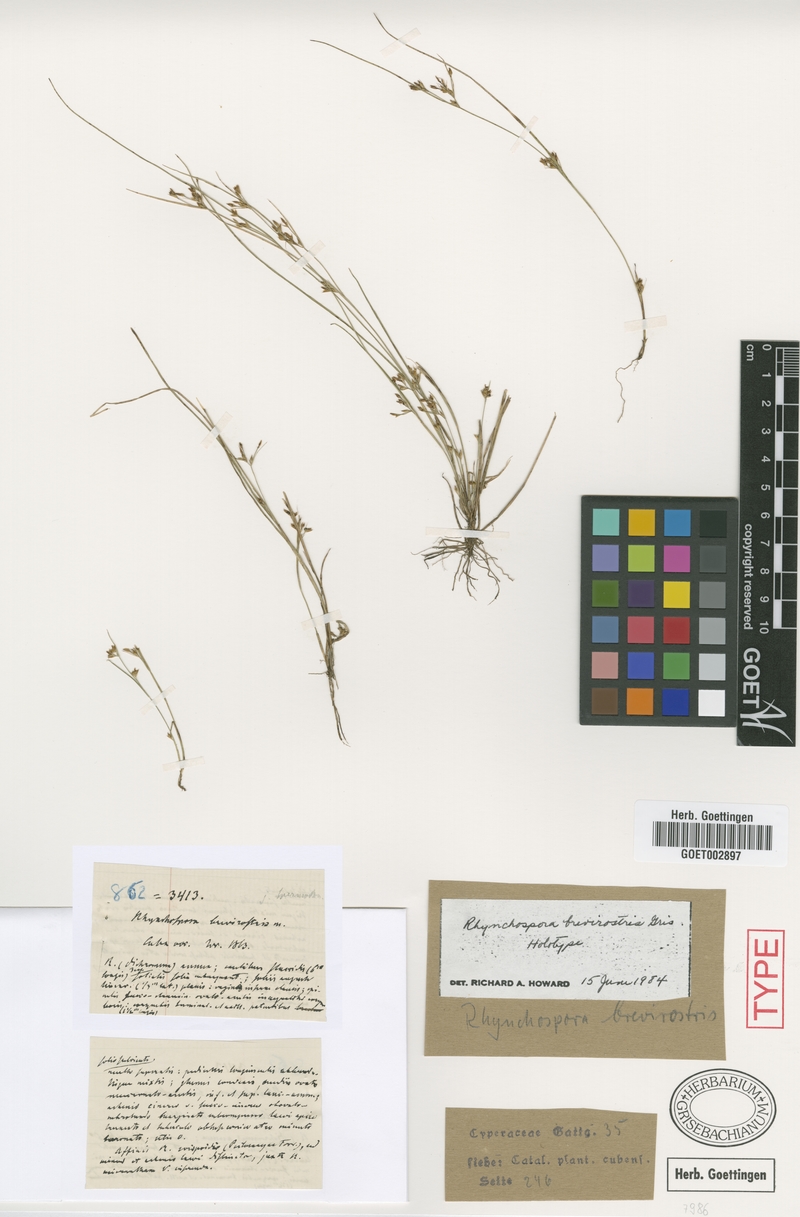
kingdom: Plantae
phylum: Tracheophyta
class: Liliopsida
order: Poales
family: Cyperaceae
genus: Rhynchospora
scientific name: Rhynchospora brevirostris
